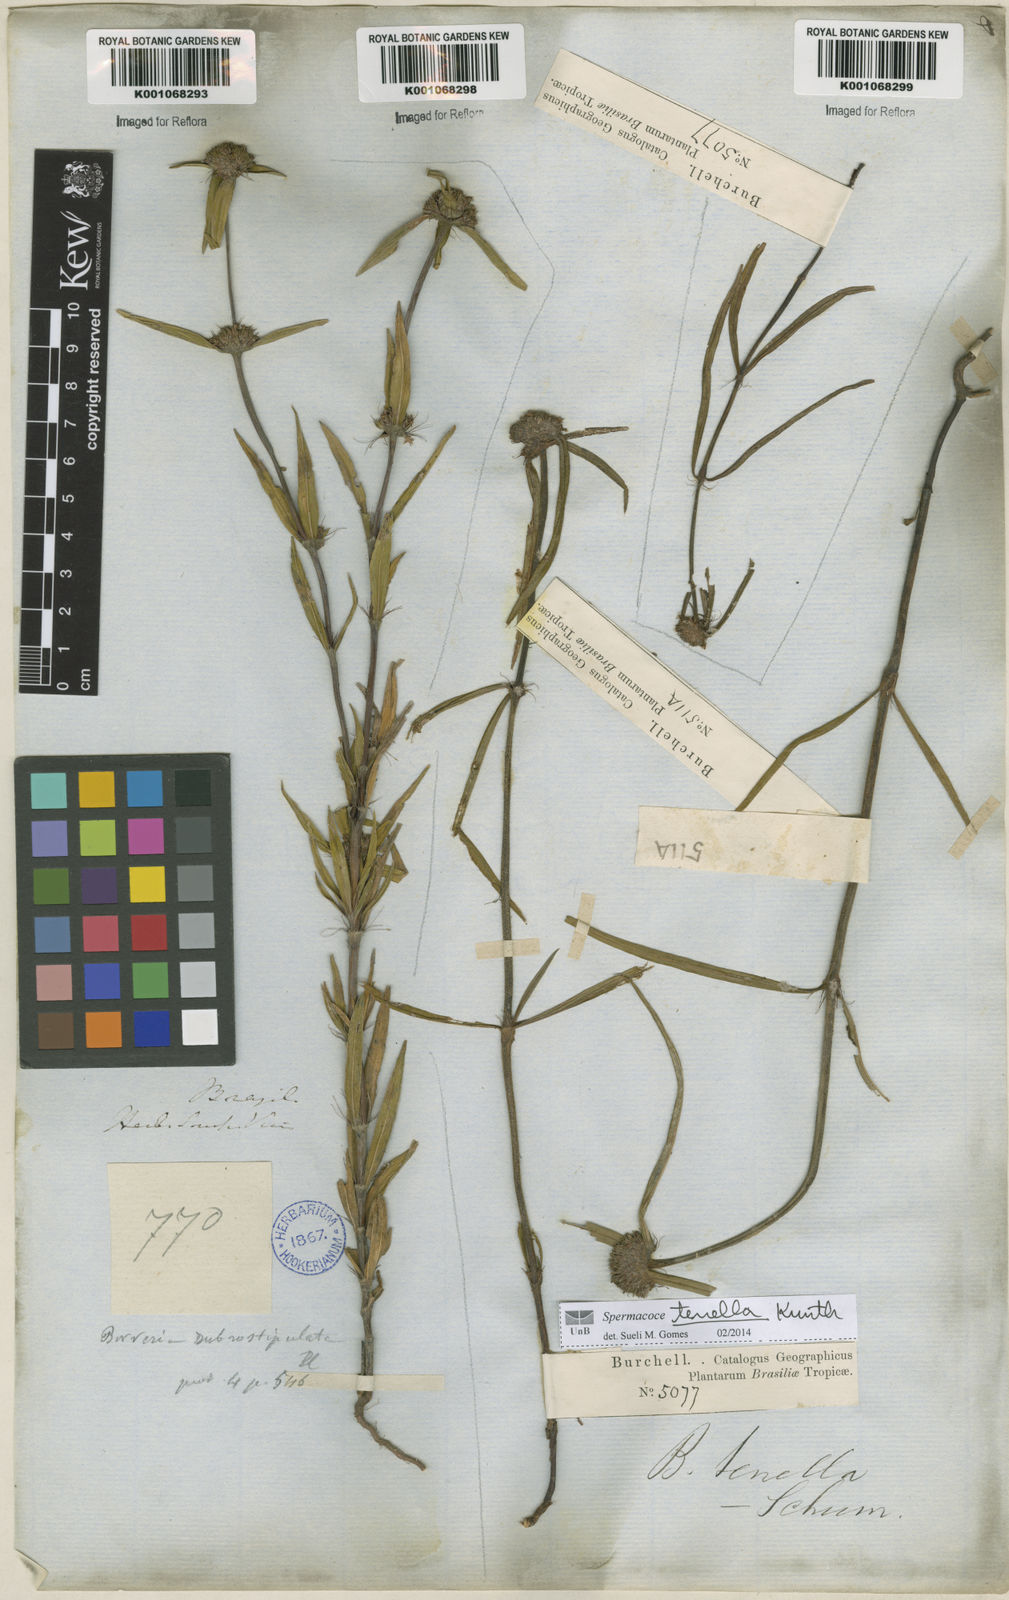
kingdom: Plantae
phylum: Tracheophyta
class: Magnoliopsida
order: Gentianales
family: Rubiaceae
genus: Spermacoce
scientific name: Spermacoce orinocensis
